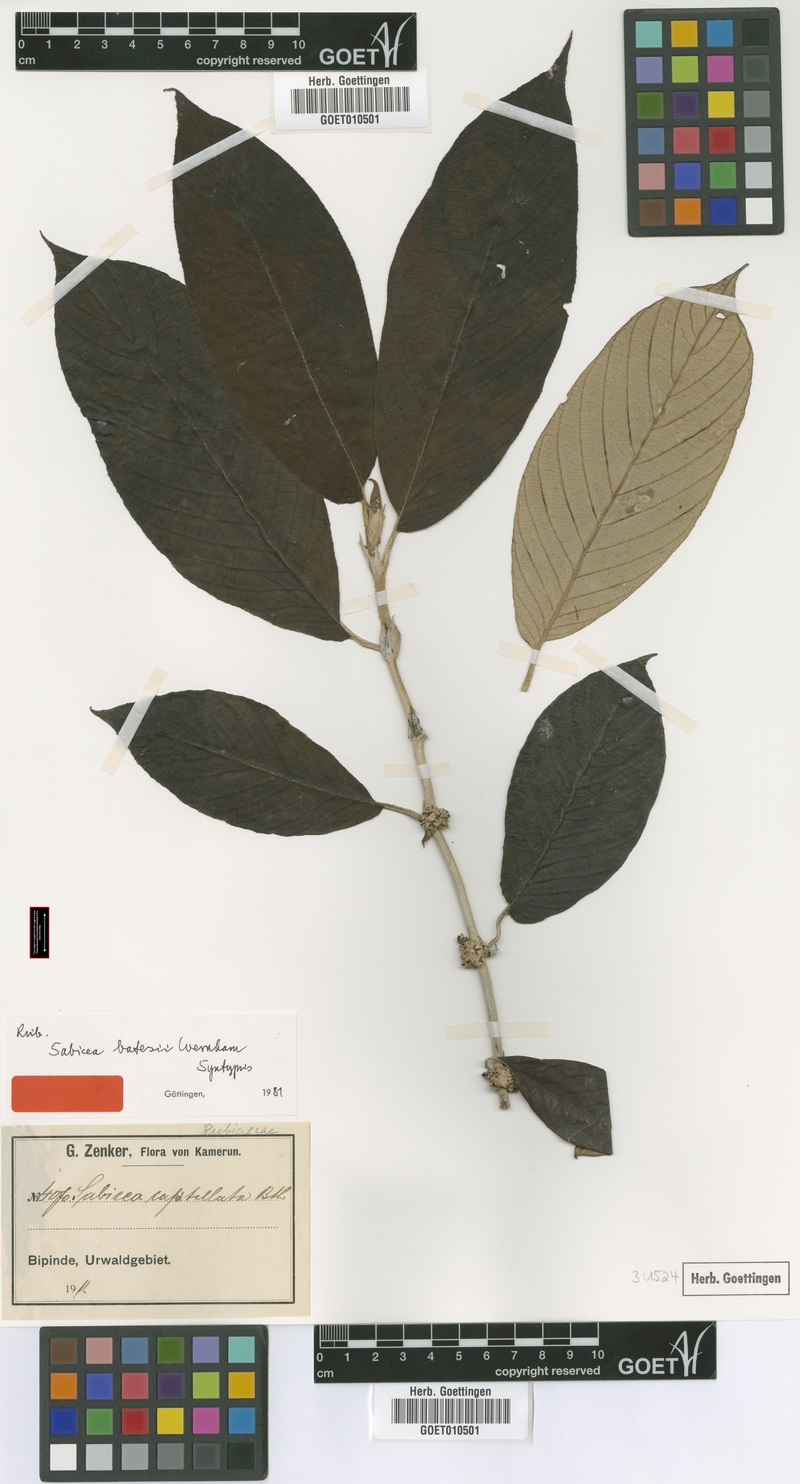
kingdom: Plantae
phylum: Tracheophyta
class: Magnoliopsida
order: Gentianales
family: Rubiaceae
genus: Sabicea
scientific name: Sabicea batesii
